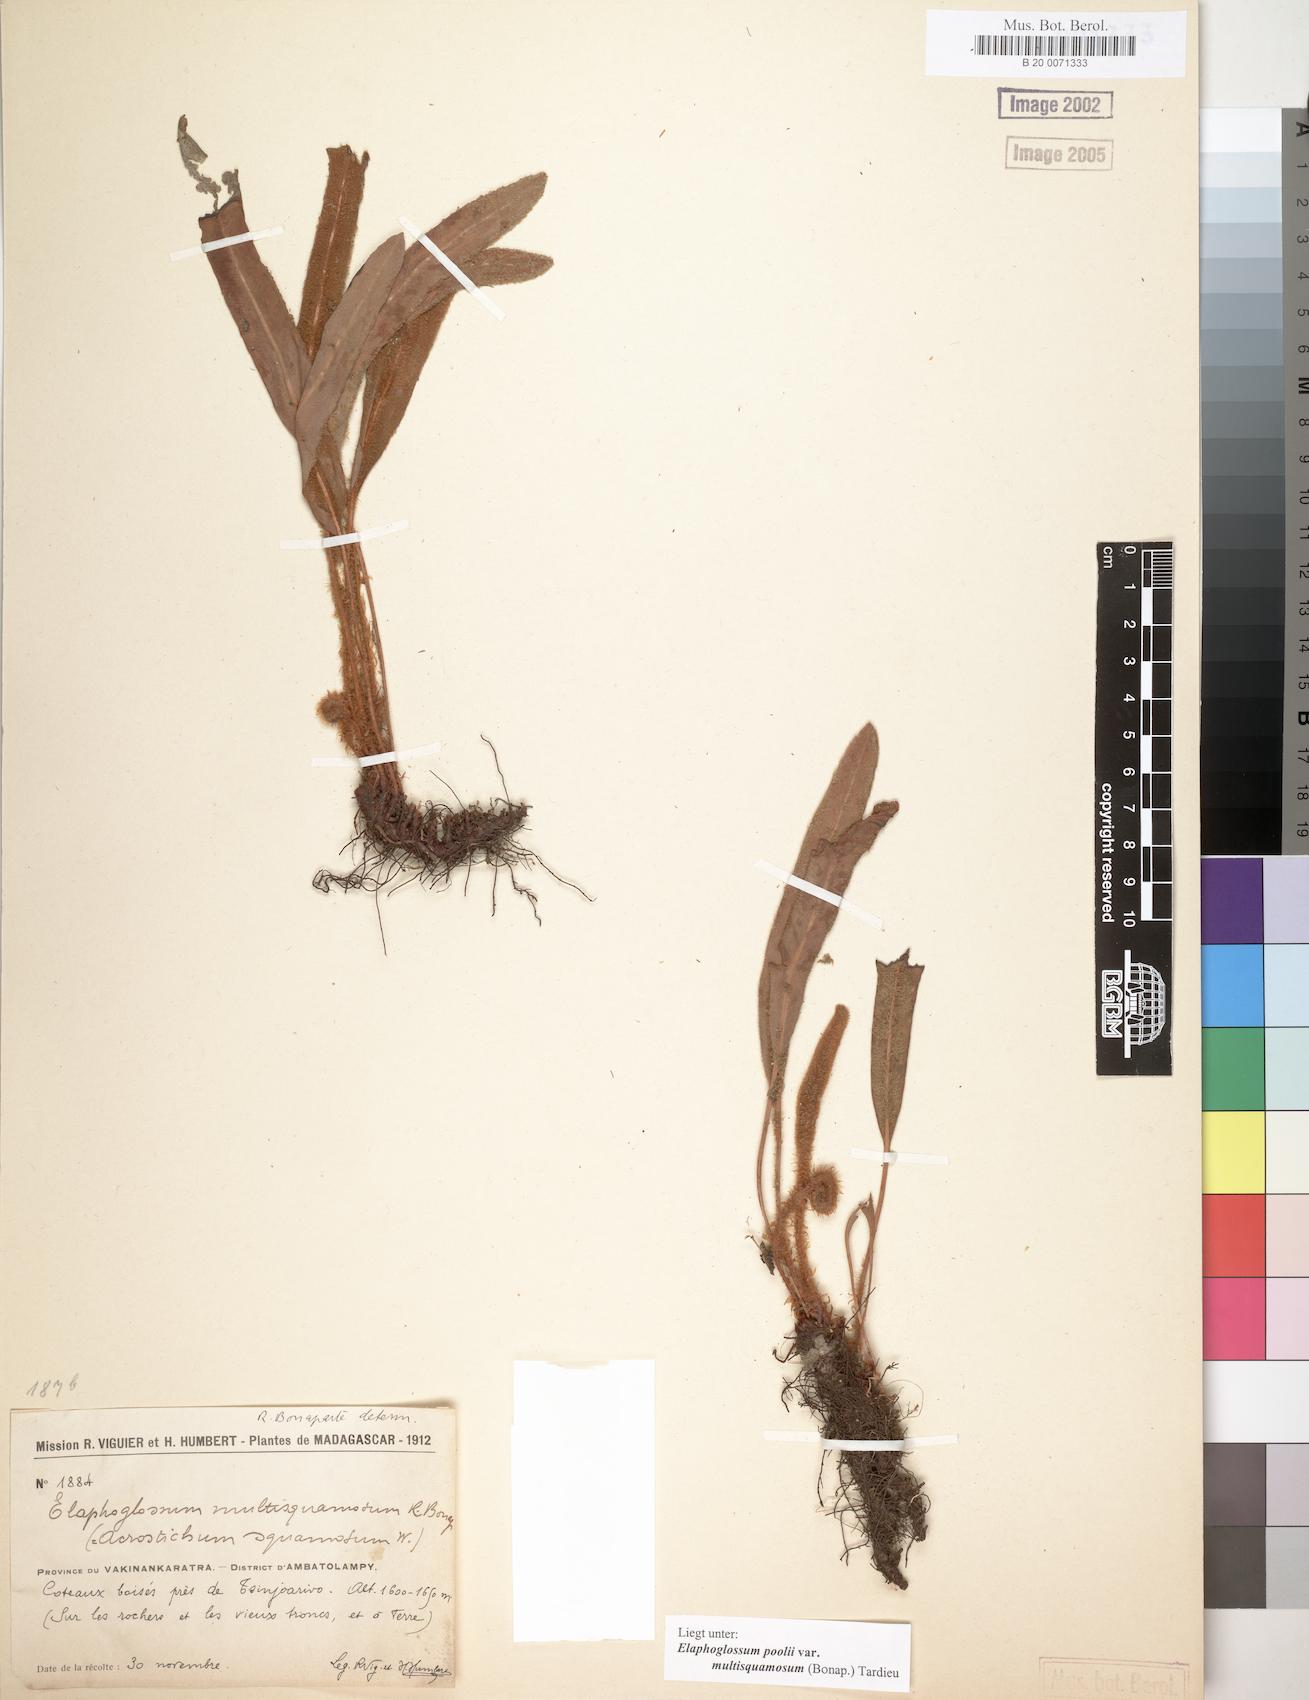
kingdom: Plantae
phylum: Tracheophyta
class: Polypodiopsida
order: Polypodiales
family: Dryopteridaceae
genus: Elaphoglossum
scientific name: Elaphoglossum poolii
